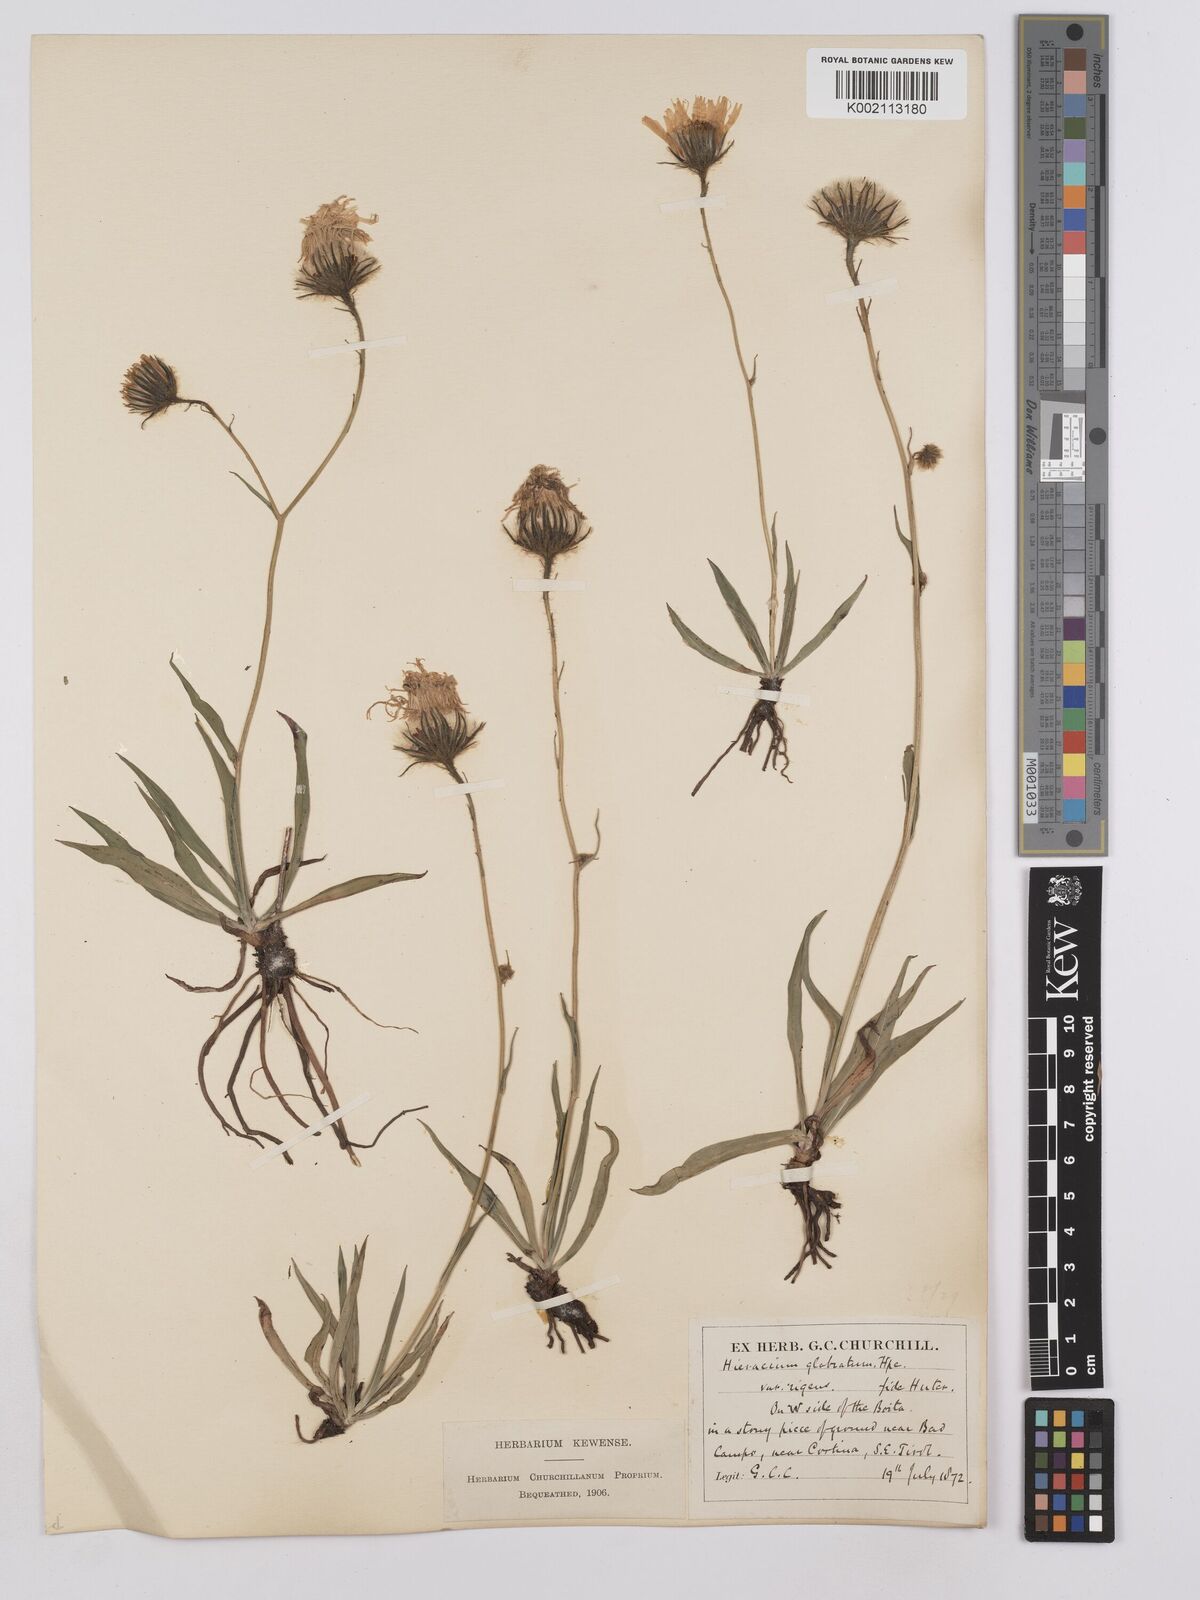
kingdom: Plantae
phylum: Tracheophyta
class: Magnoliopsida
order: Asterales
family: Asteraceae
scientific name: Asteraceae
